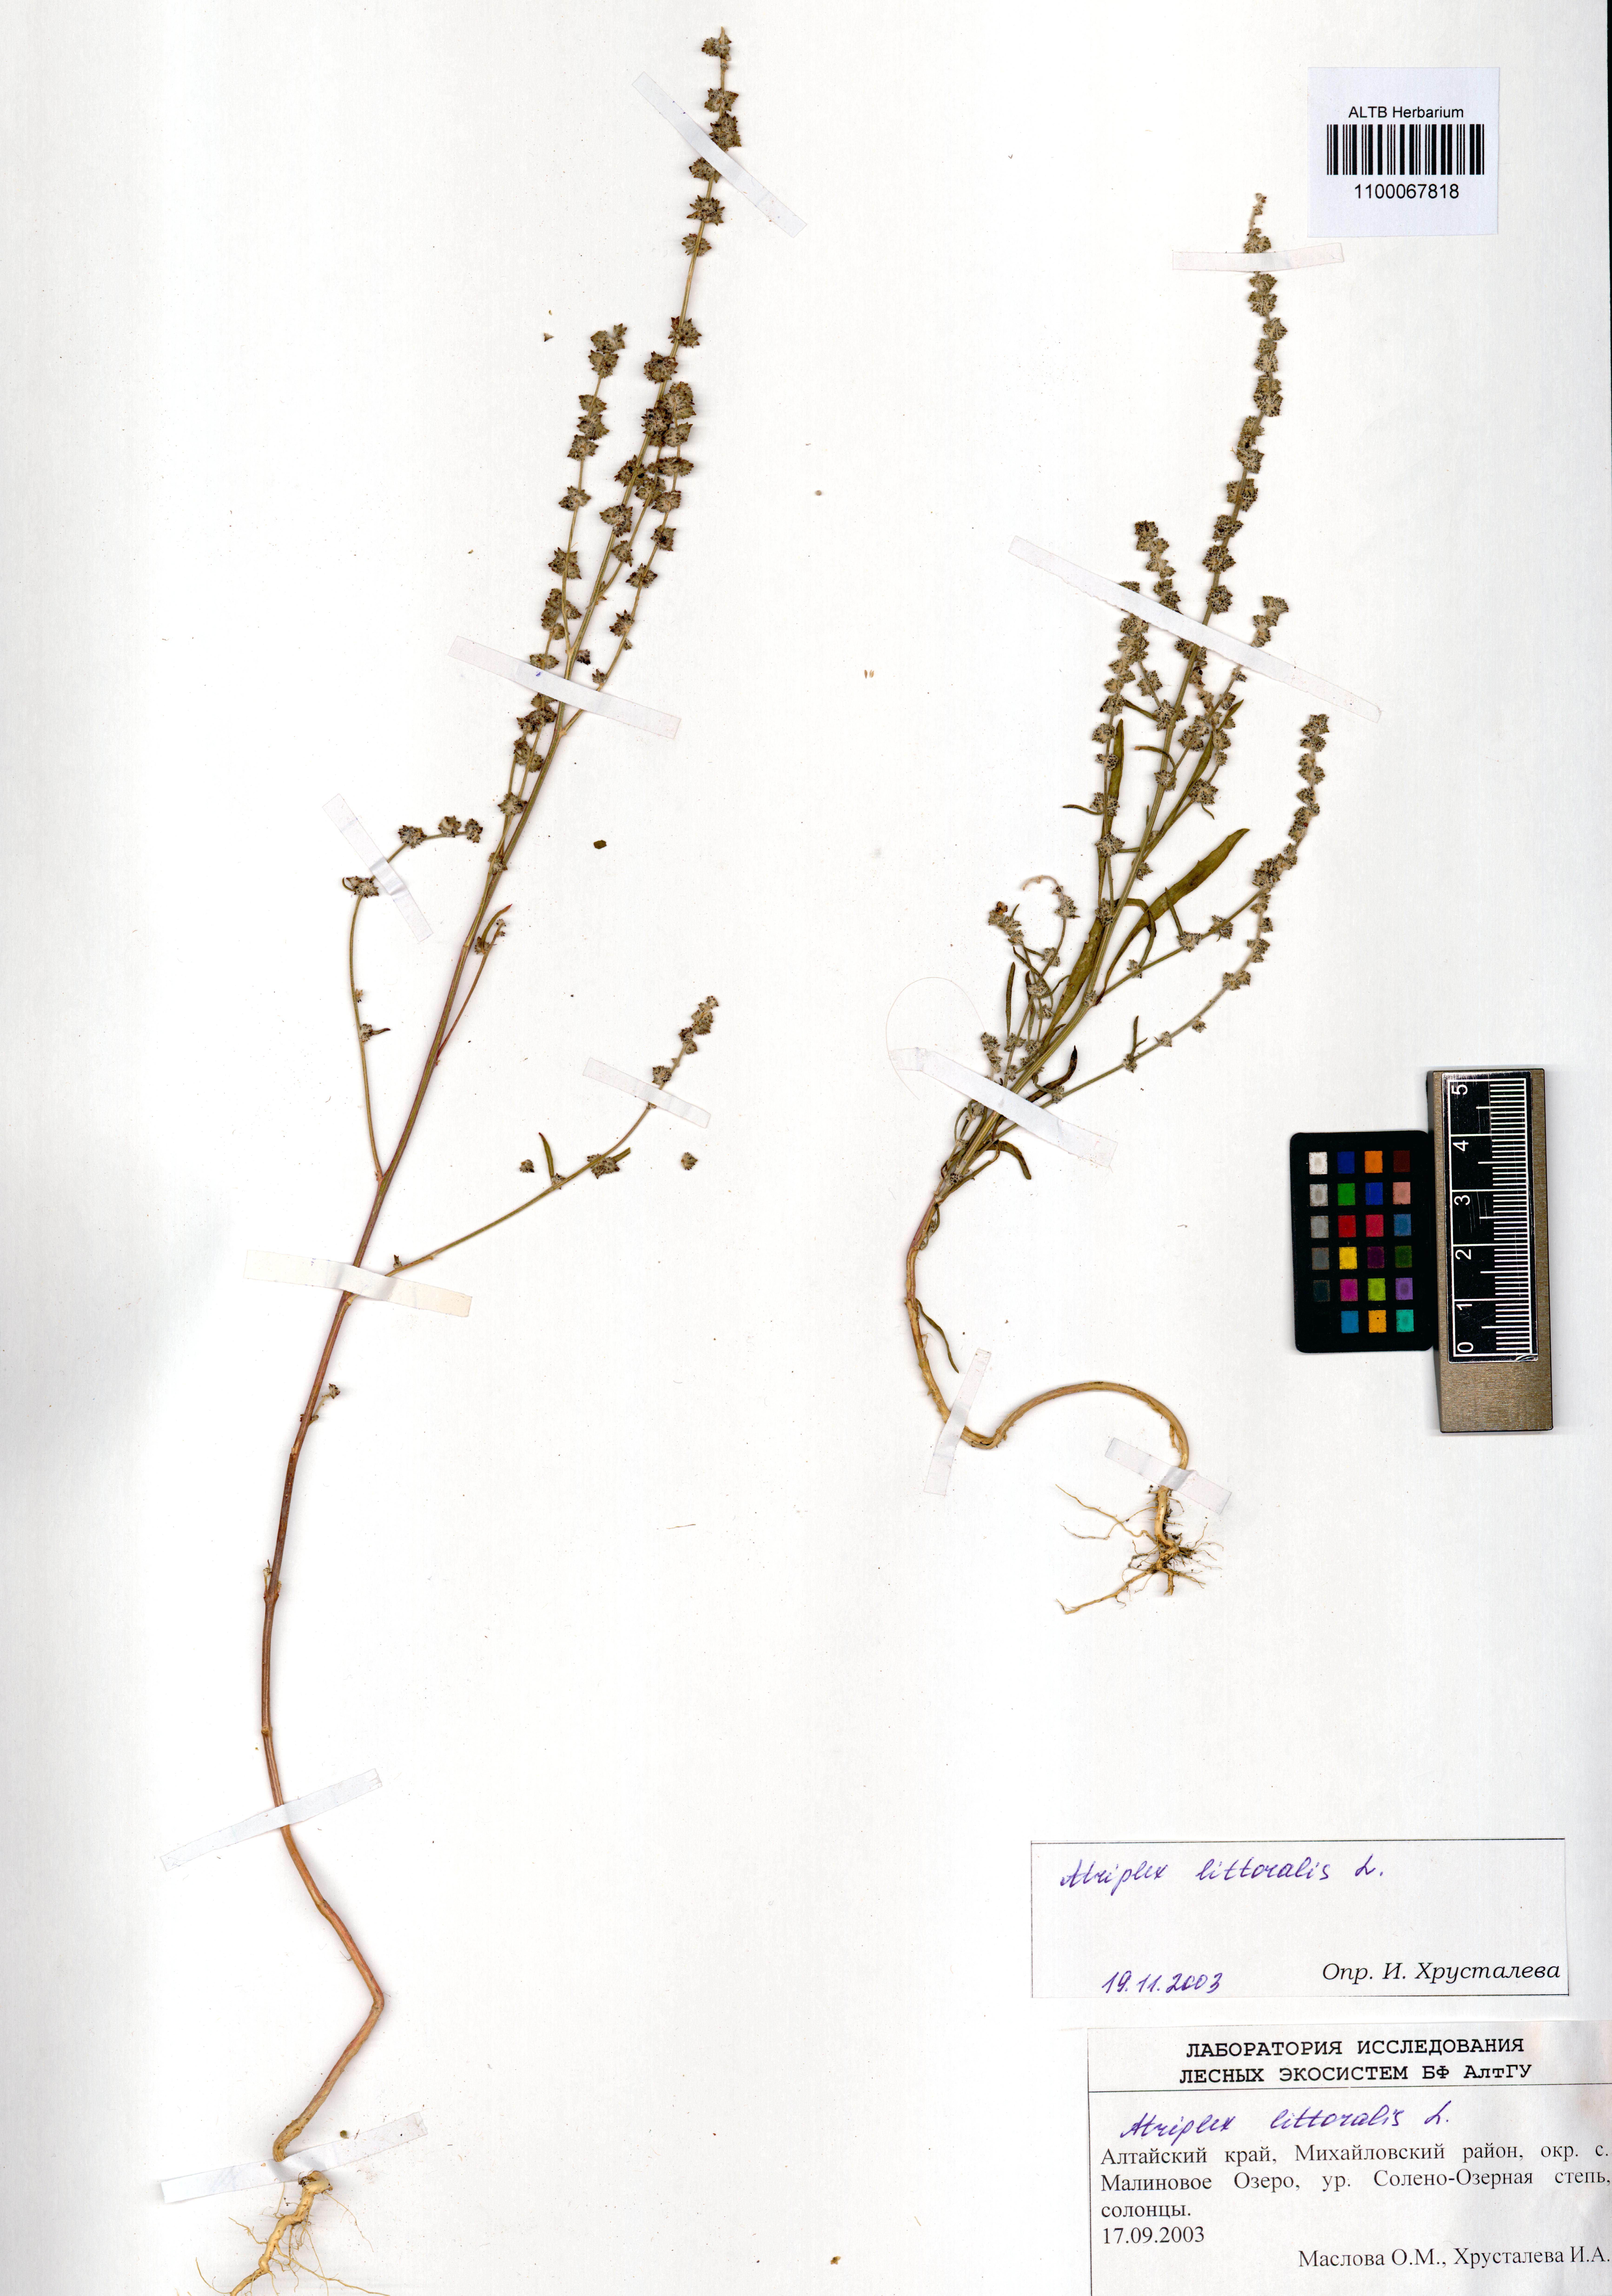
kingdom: Plantae
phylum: Tracheophyta
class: Magnoliopsida
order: Caryophyllales
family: Amaranthaceae
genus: Atriplex
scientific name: Atriplex littoralis
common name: Grass-leaved orache
